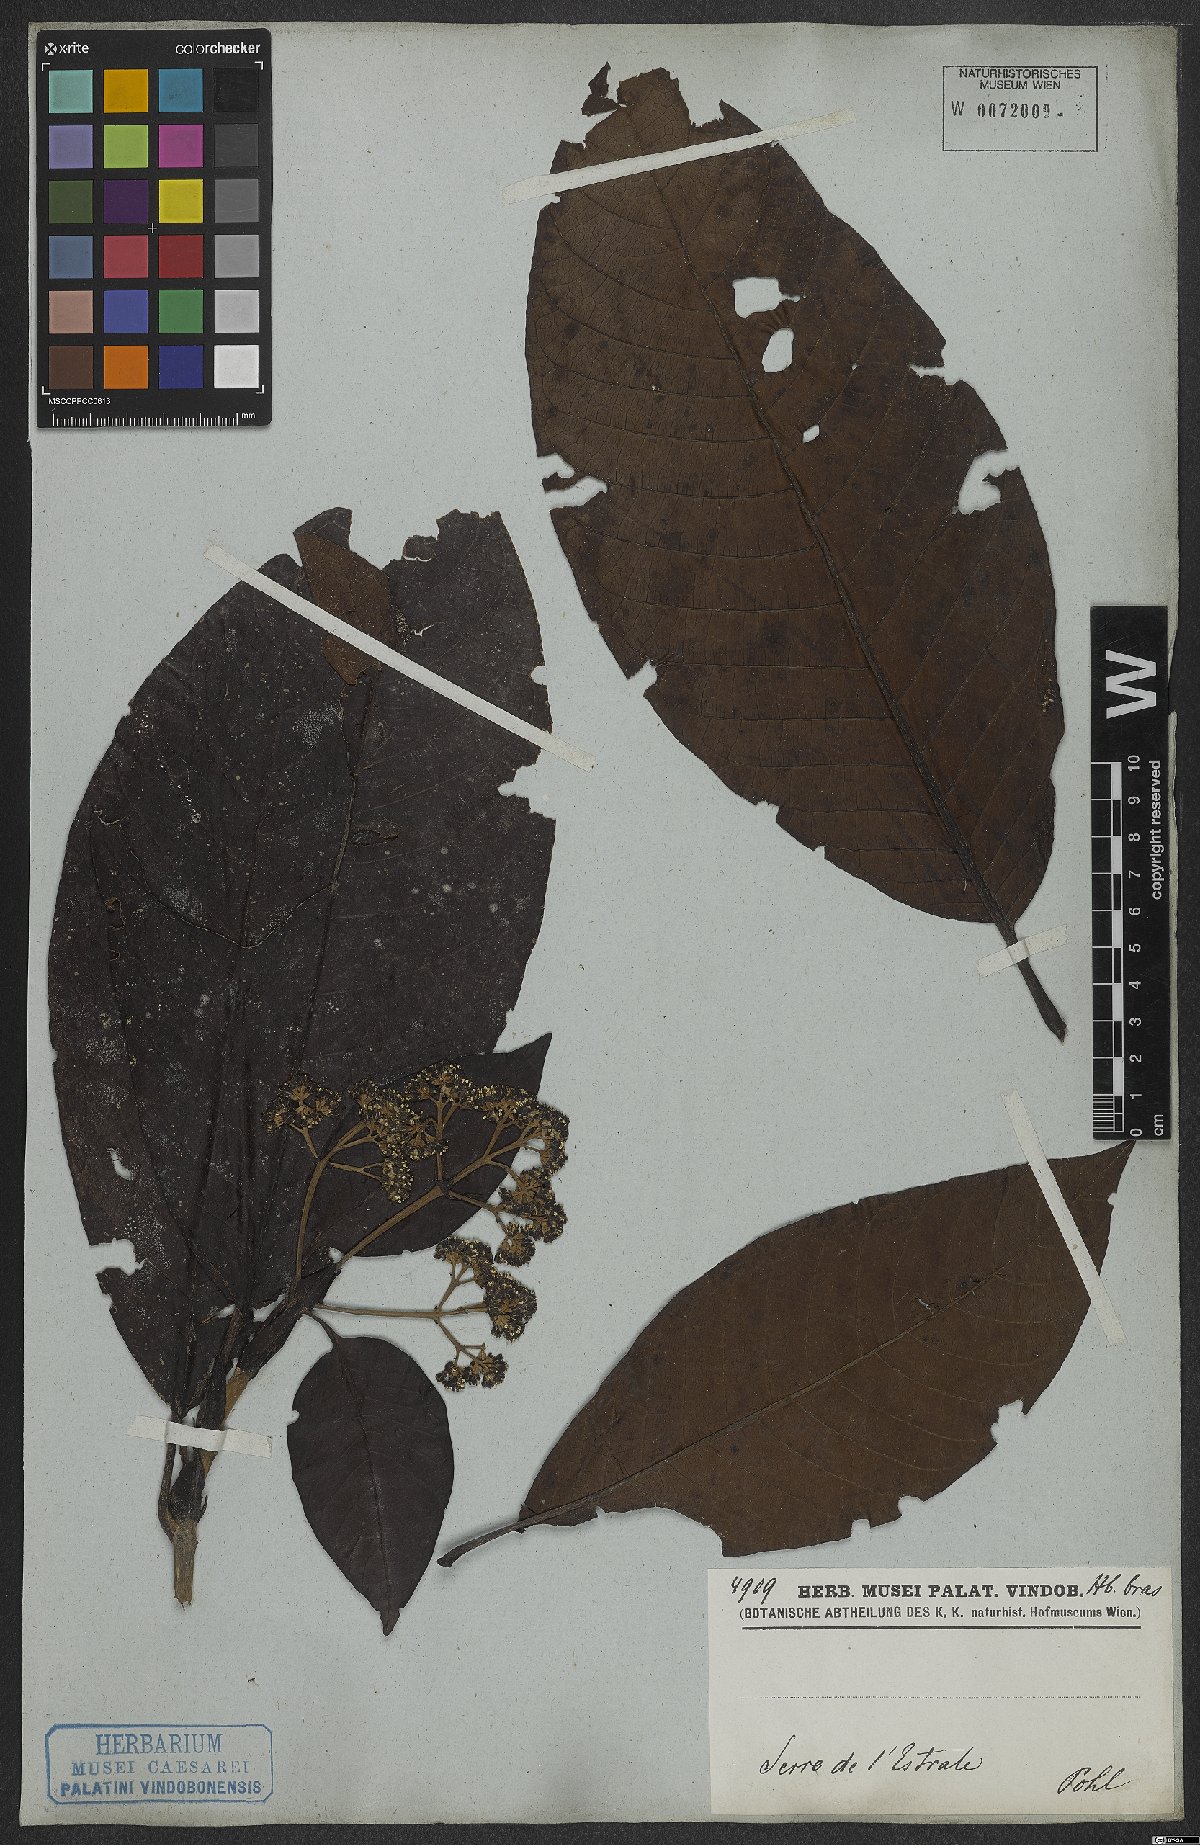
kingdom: Plantae
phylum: Tracheophyta
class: Magnoliopsida
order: Gentianales
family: Rubiaceae
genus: Bathysa
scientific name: Bathysa stipulata
